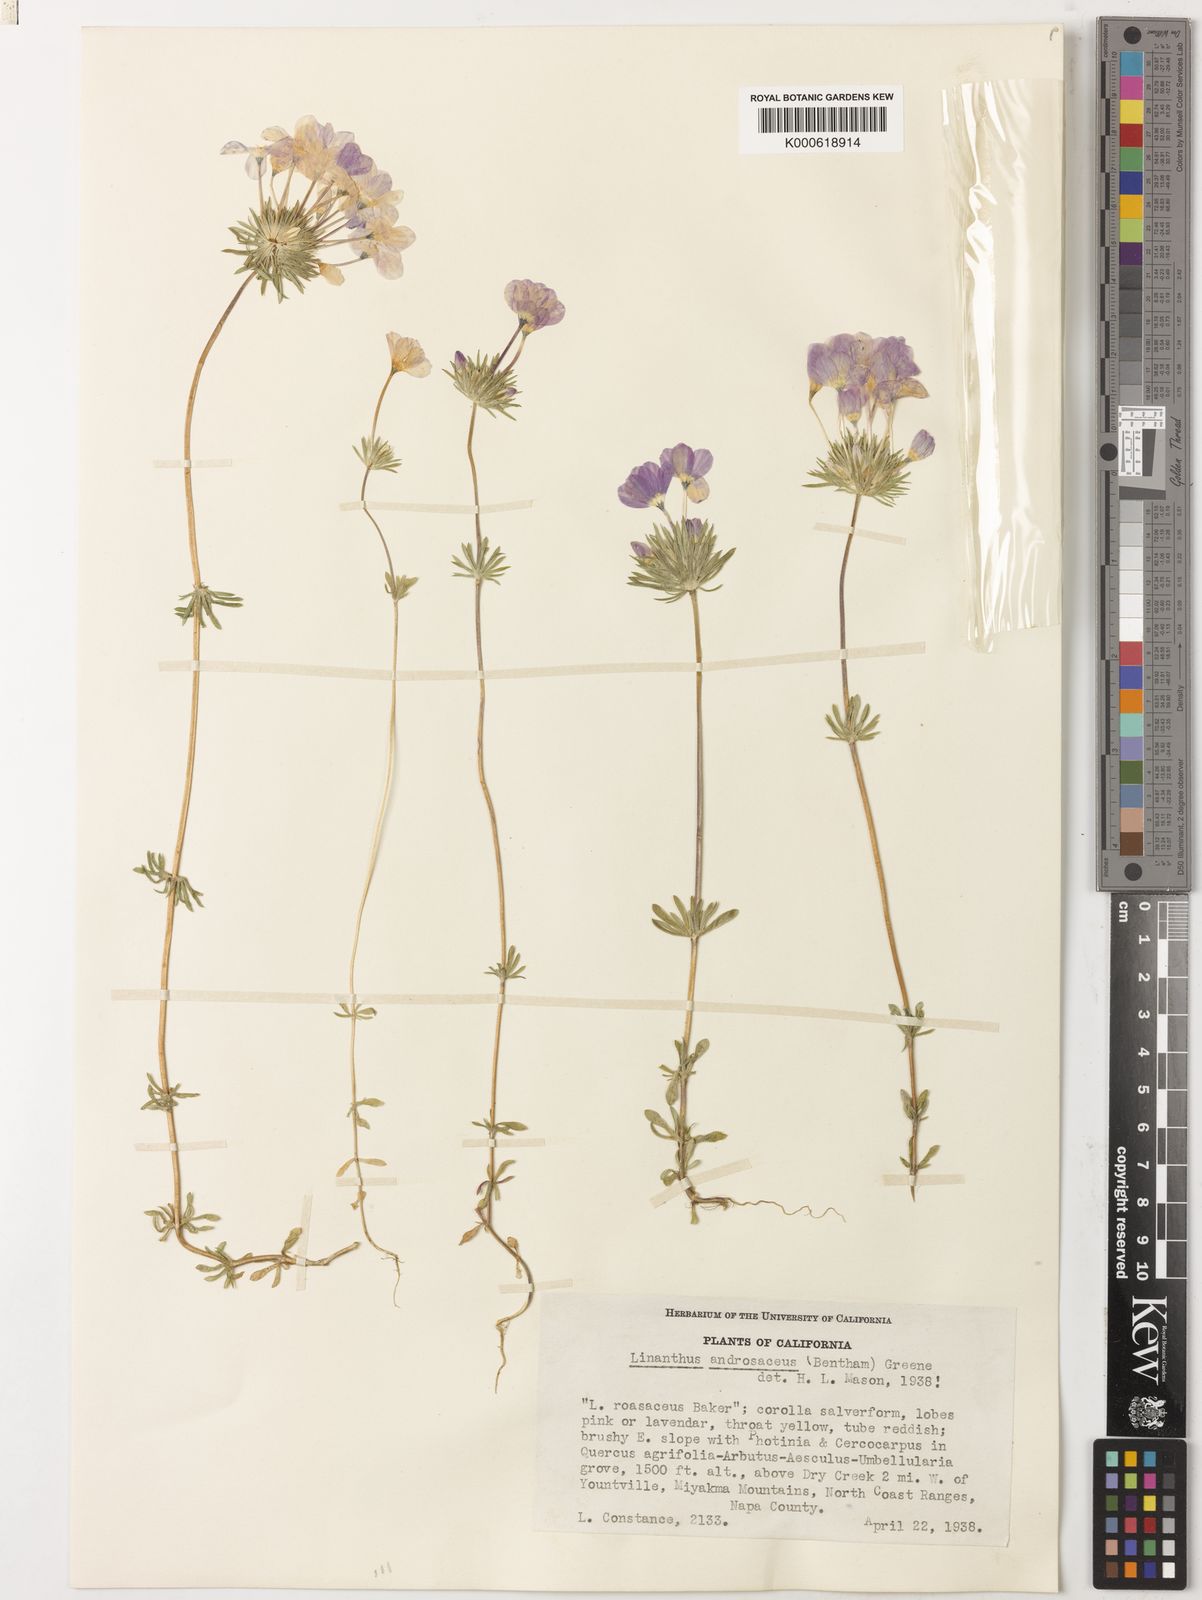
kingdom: Plantae
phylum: Tracheophyta
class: Magnoliopsida
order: Ericales
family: Polemoniaceae
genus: Leptosiphon
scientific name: Leptosiphon androsaceus
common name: False babystars
